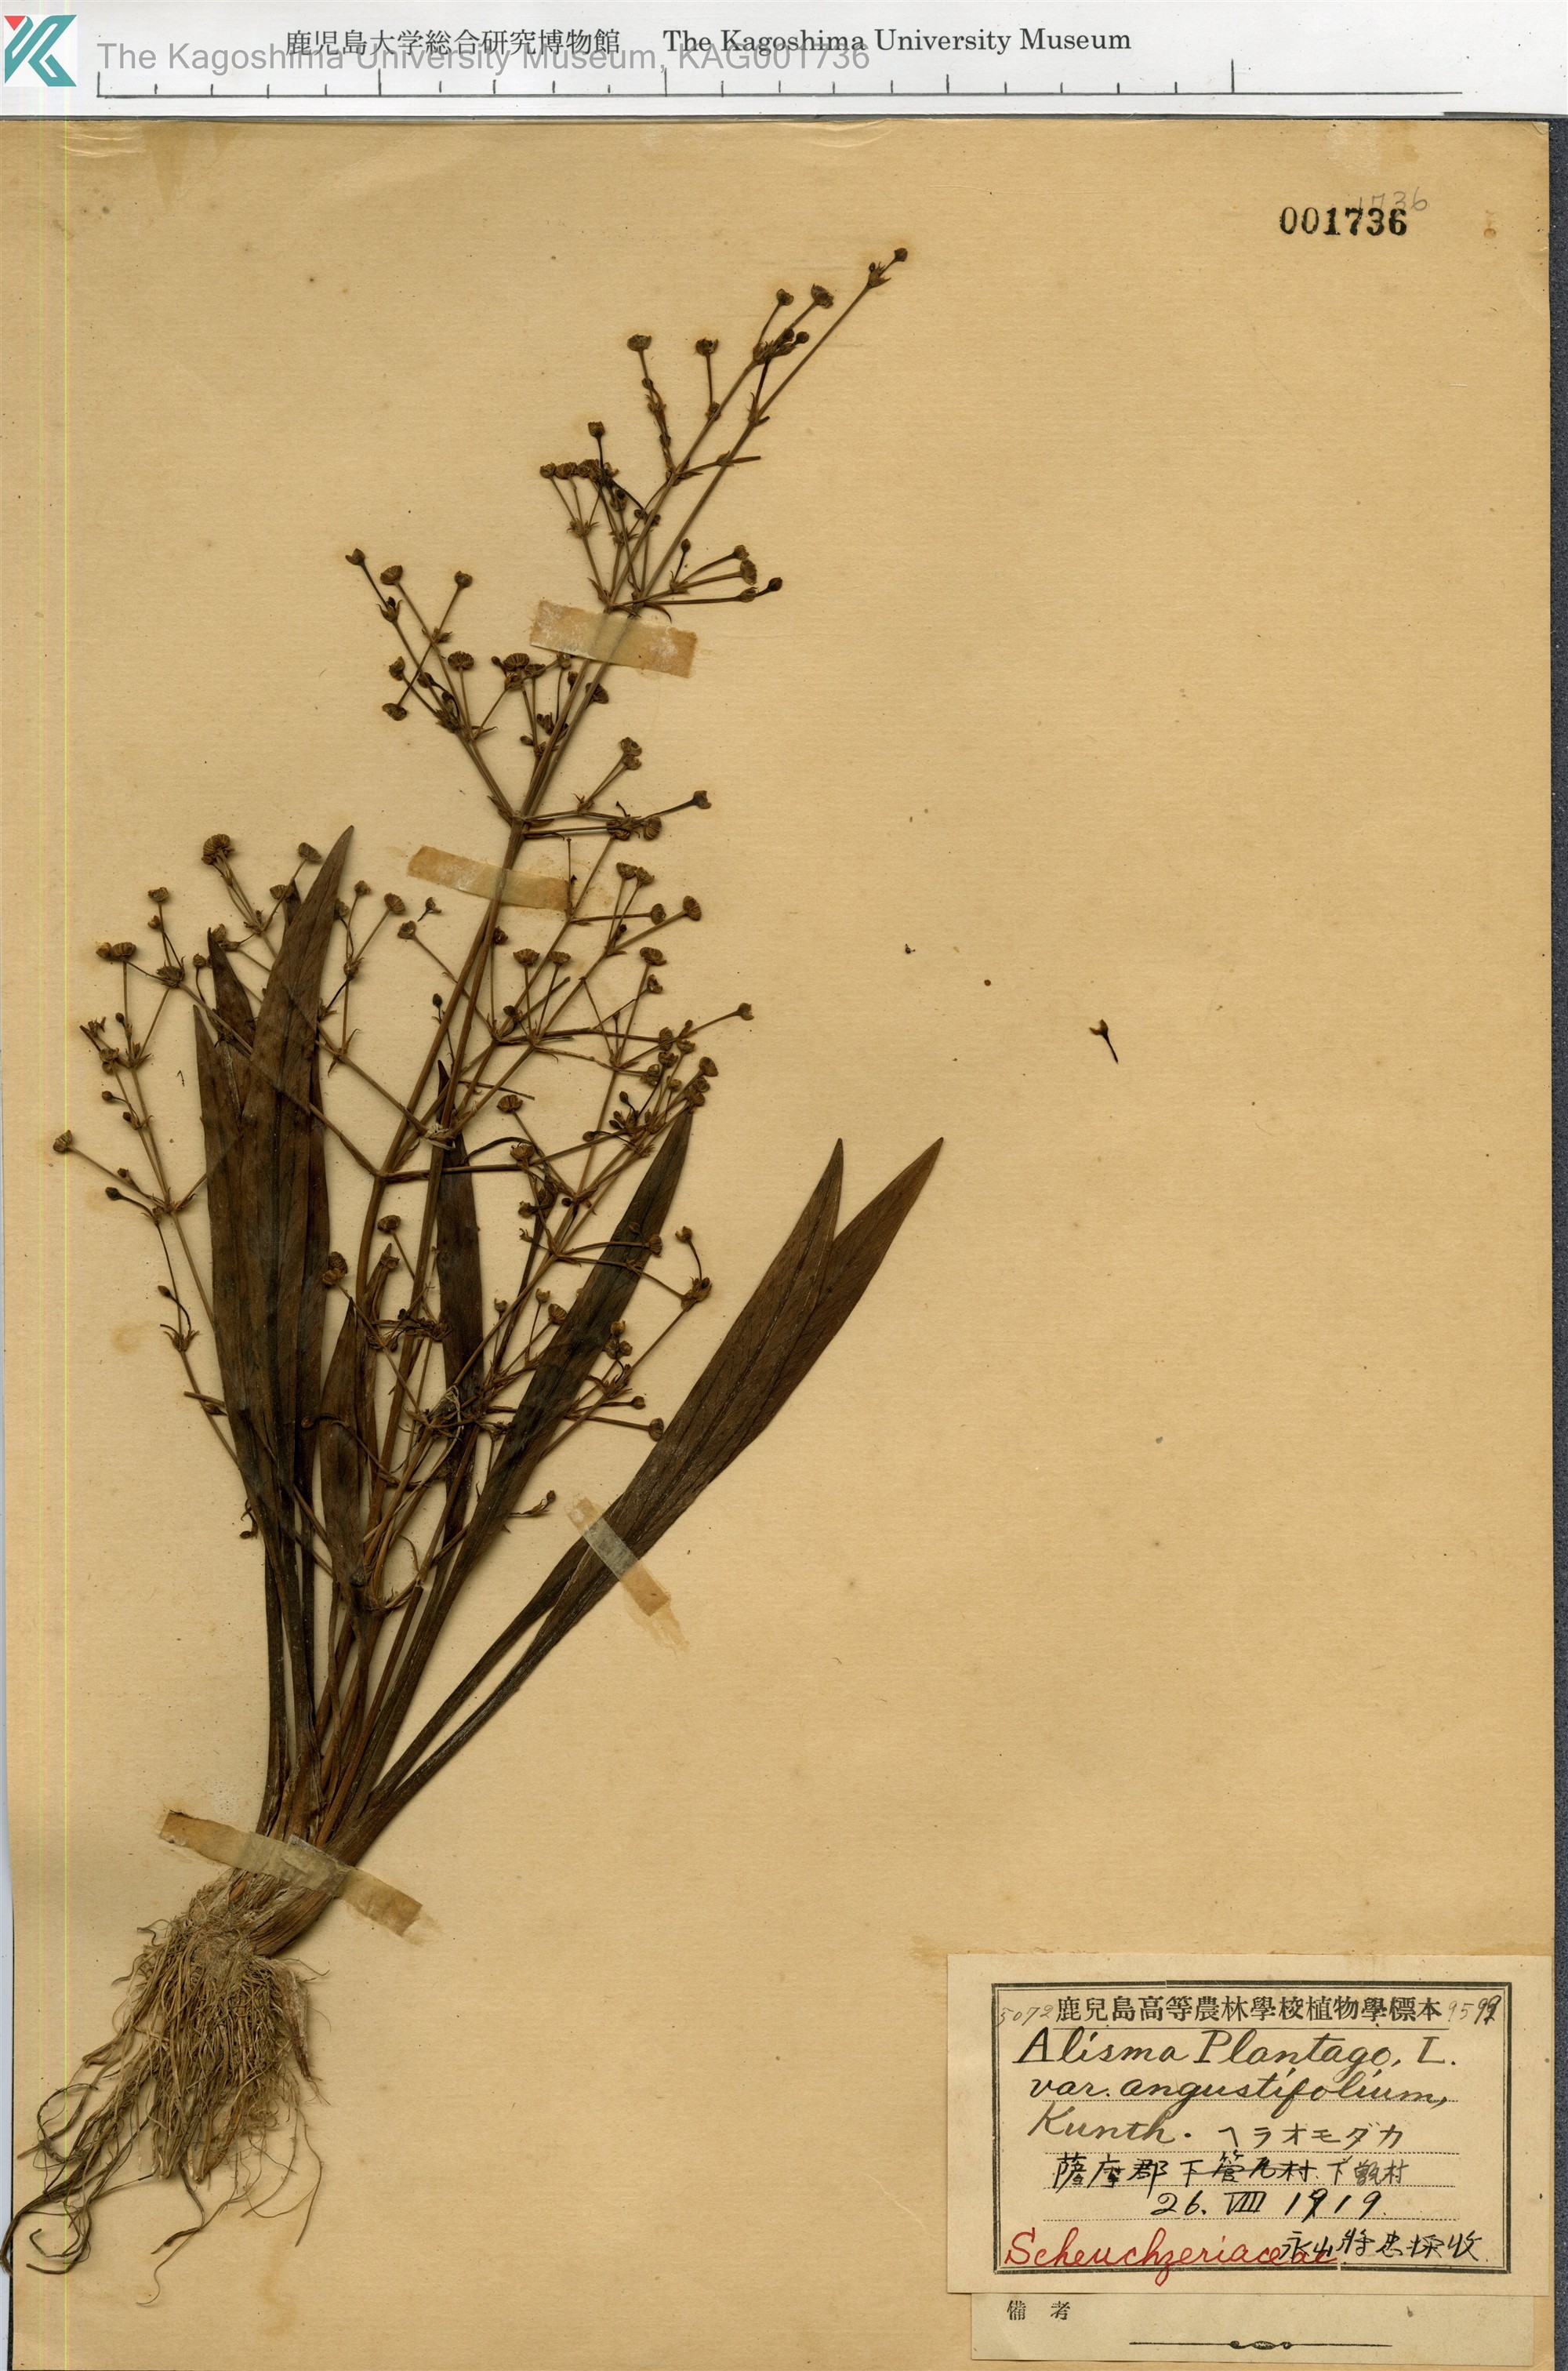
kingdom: Plantae
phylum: Tracheophyta
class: Liliopsida
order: Alismatales
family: Alismataceae
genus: Alisma
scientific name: Alisma canaliculatum
